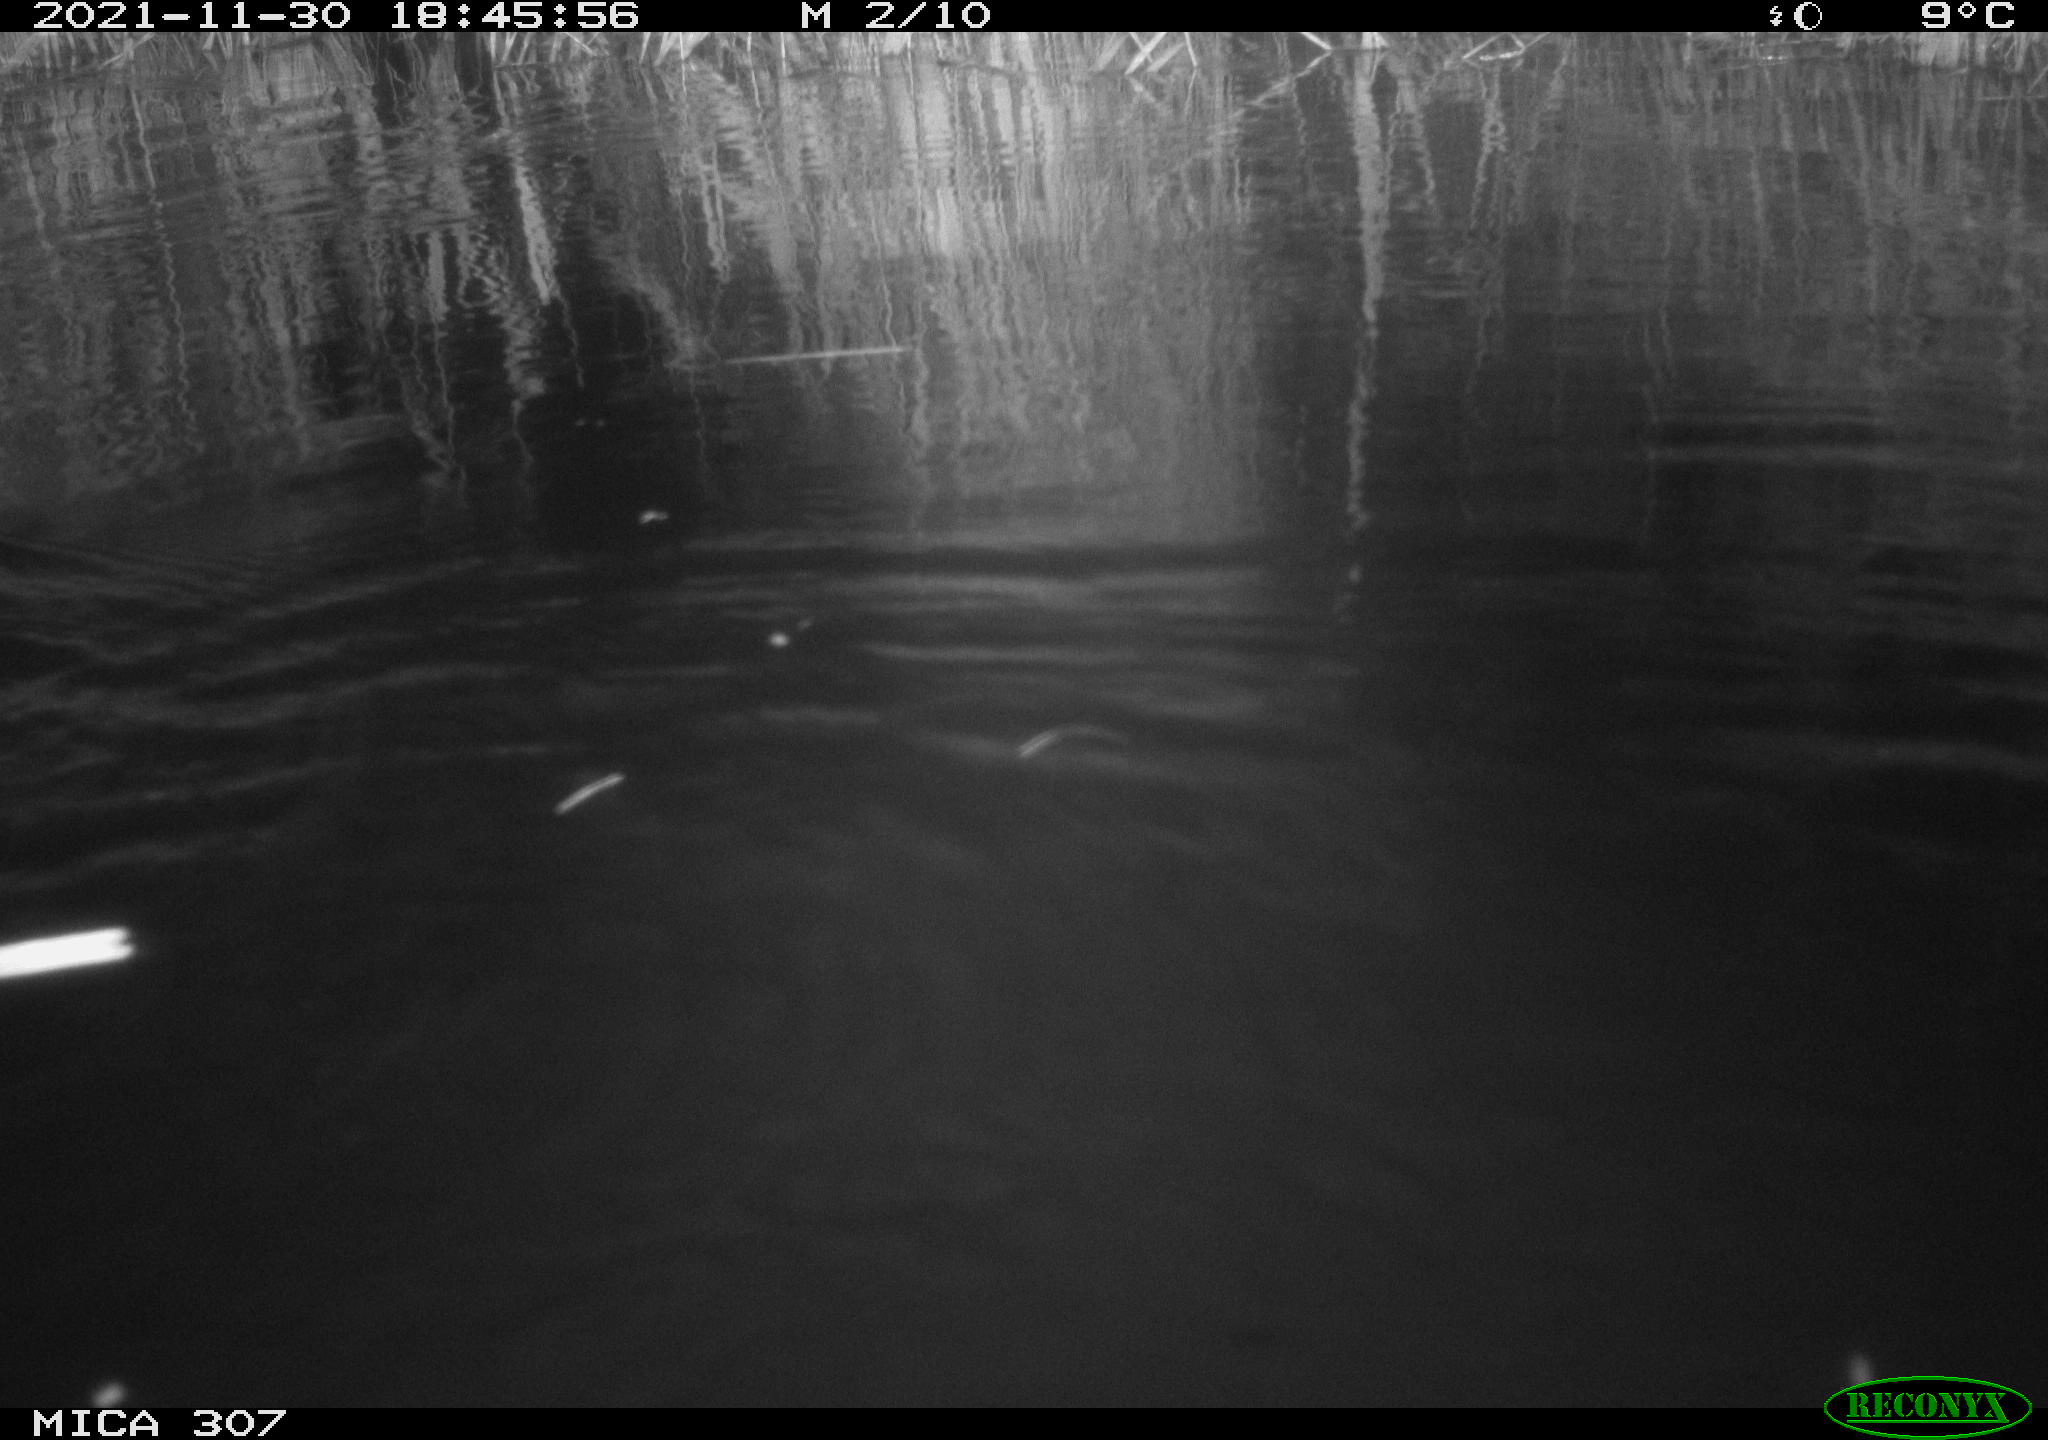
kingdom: Animalia
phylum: Chordata
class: Mammalia
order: Rodentia
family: Muridae
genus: Rattus
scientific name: Rattus norvegicus
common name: Brown rat
